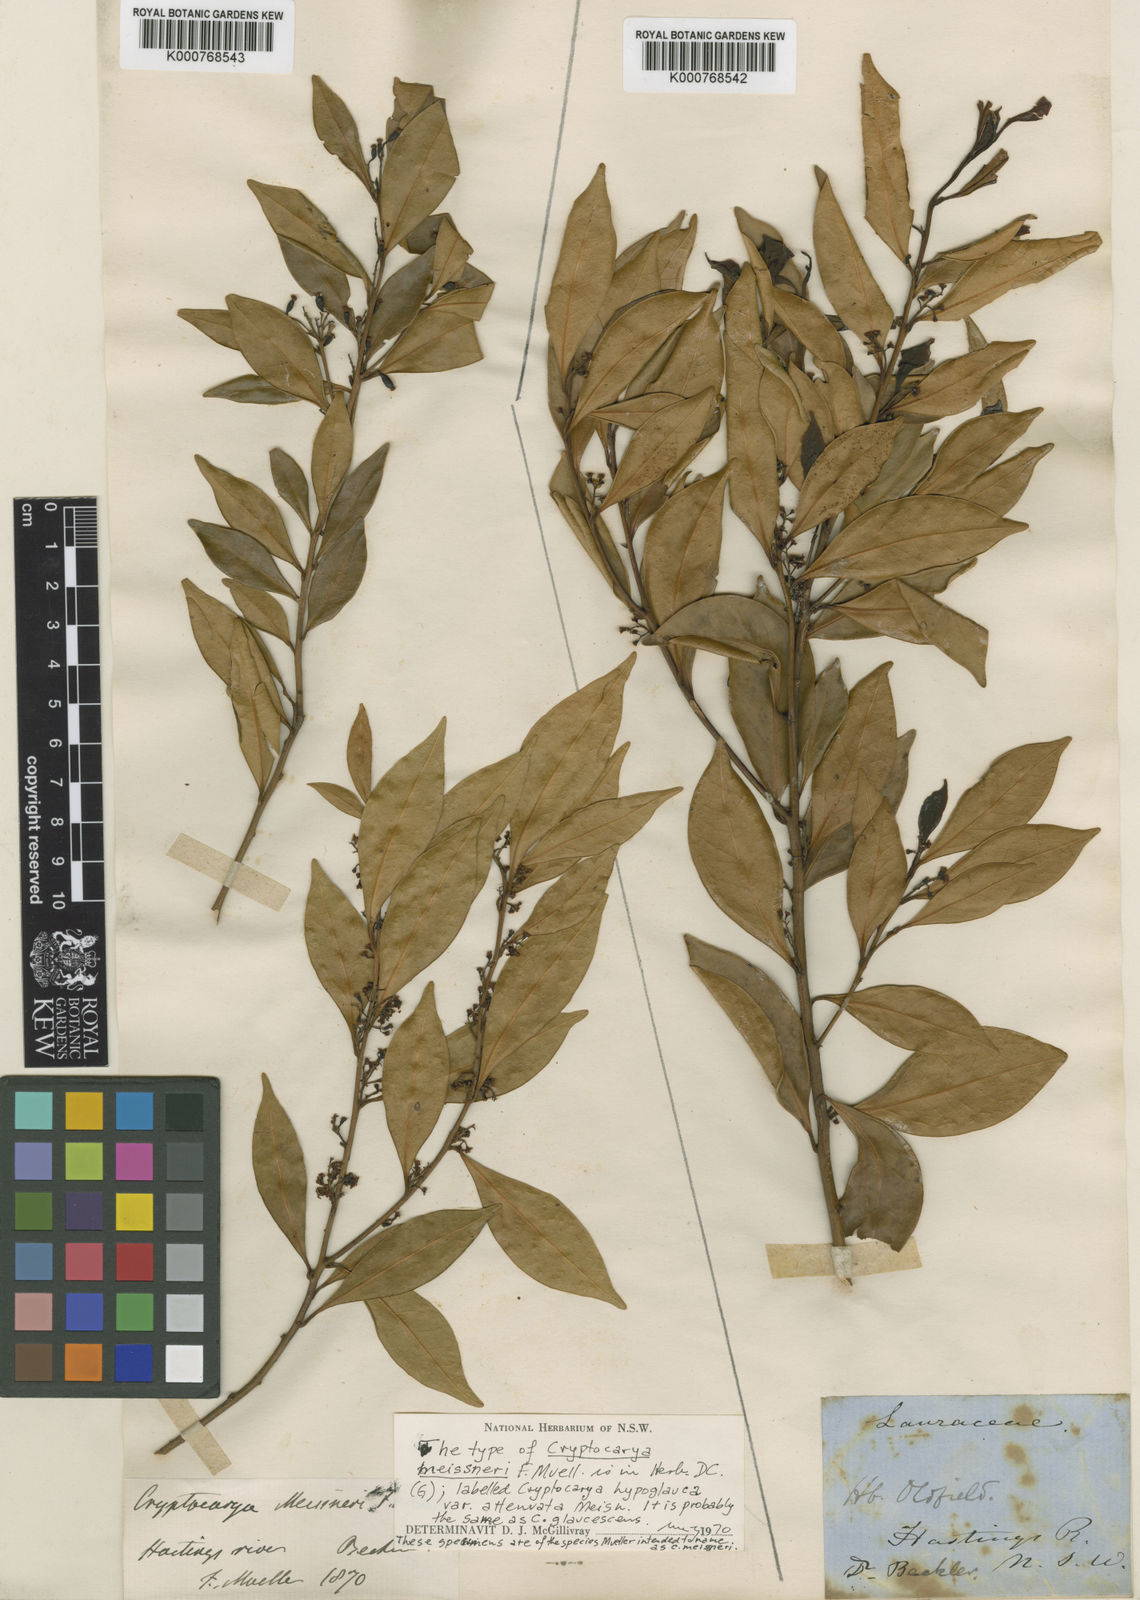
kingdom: Plantae
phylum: Tracheophyta
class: Magnoliopsida
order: Laurales
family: Lauraceae
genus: Cryptocarya
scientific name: Cryptocarya meisneriana
